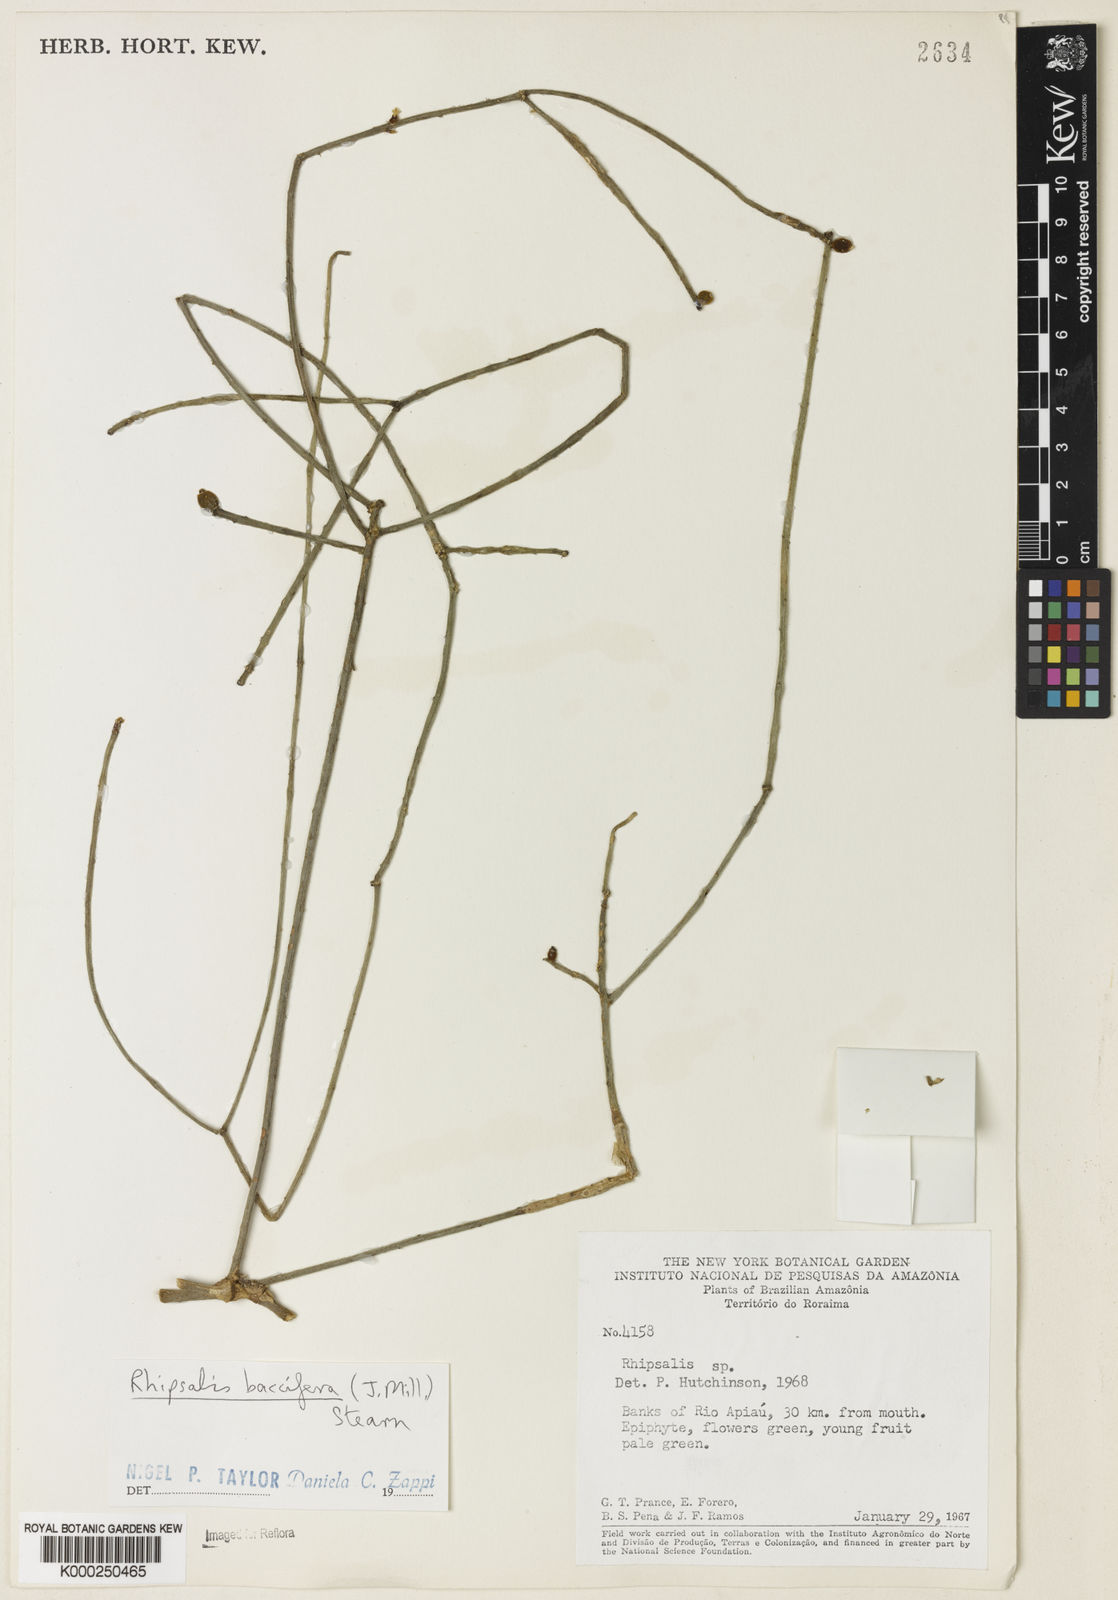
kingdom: Plantae
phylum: Tracheophyta
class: Magnoliopsida
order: Caryophyllales
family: Cactaceae
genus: Rhipsalis
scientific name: Rhipsalis baccifera
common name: Mistletoe cactus
